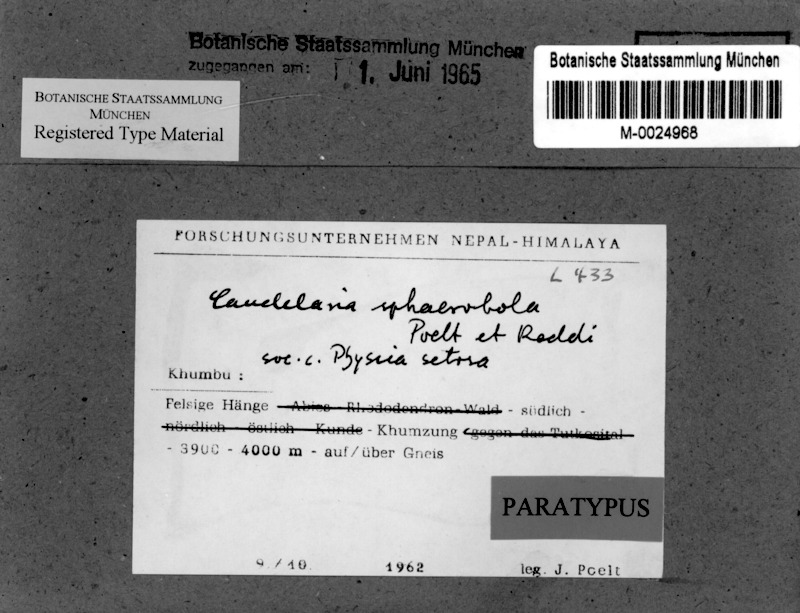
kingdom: Fungi
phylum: Ascomycota
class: Candelariomycetes
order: Candelariales
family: Candelariaceae
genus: Candelaria
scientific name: Candelaria
